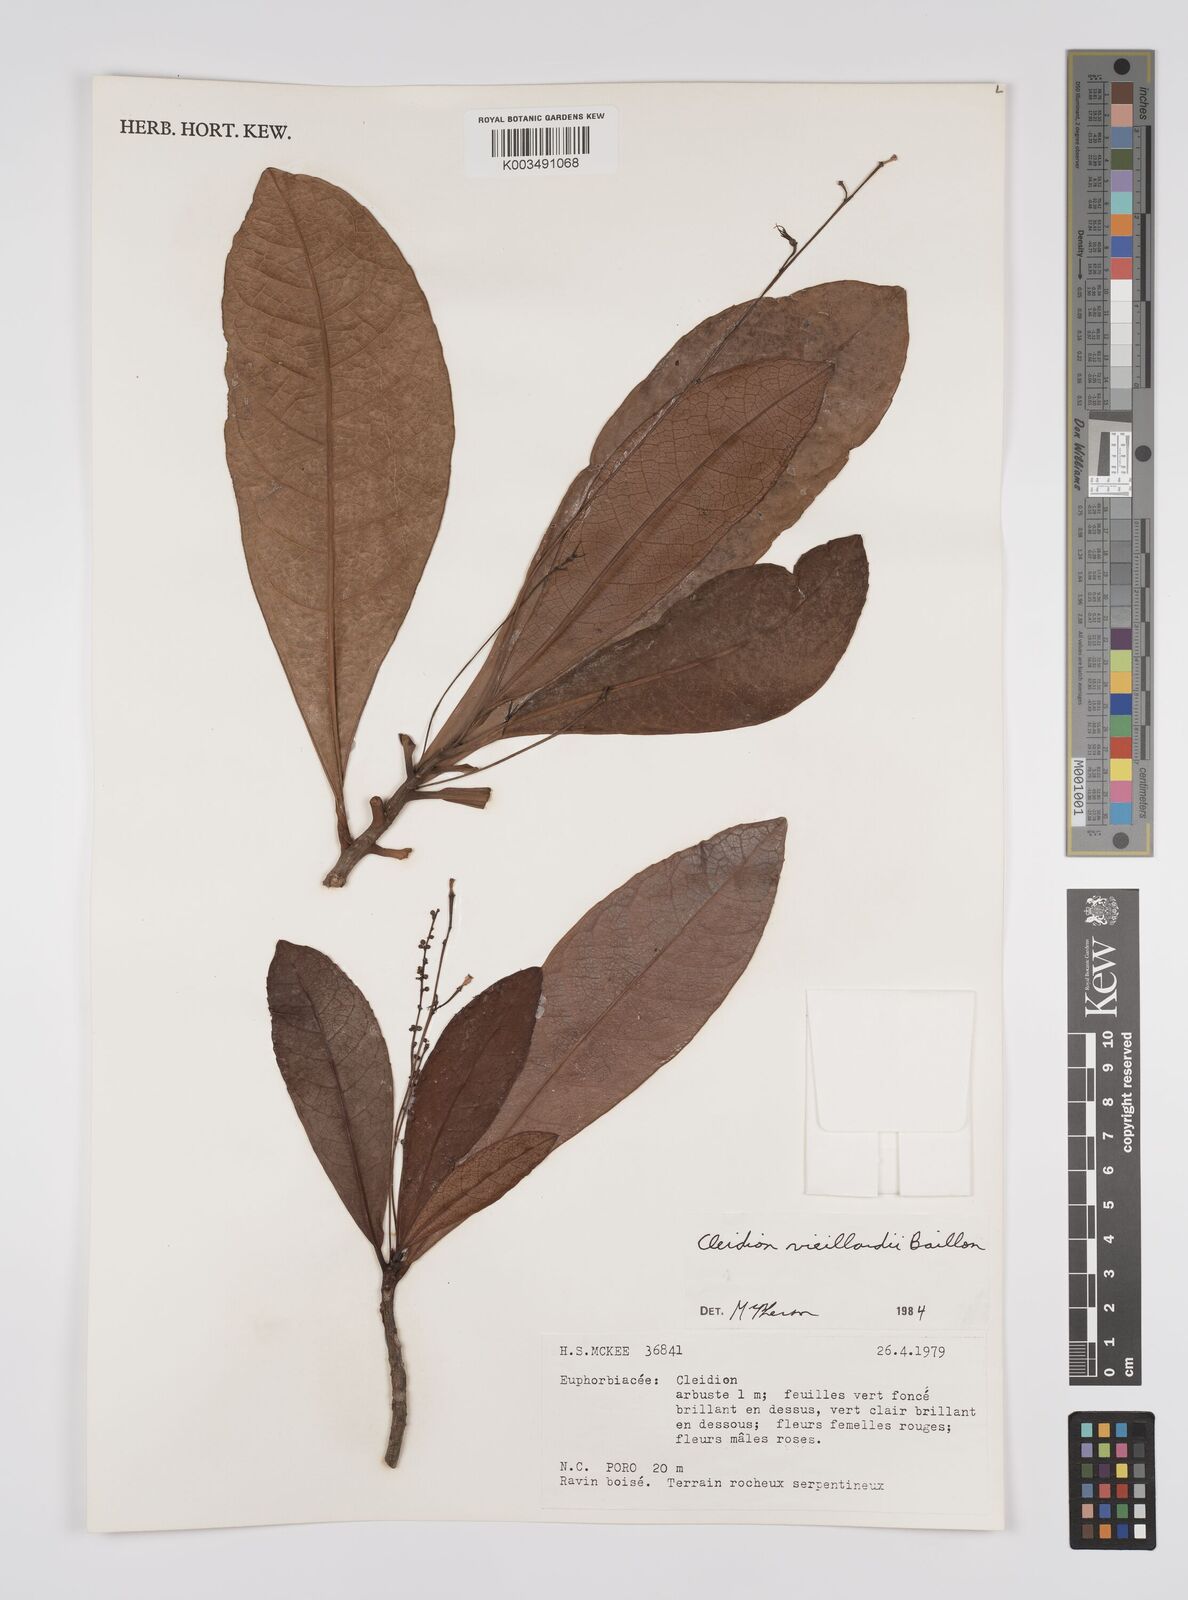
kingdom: Plantae
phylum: Tracheophyta
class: Magnoliopsida
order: Malpighiales
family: Euphorbiaceae
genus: Cleidion
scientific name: Cleidion vieillardii
